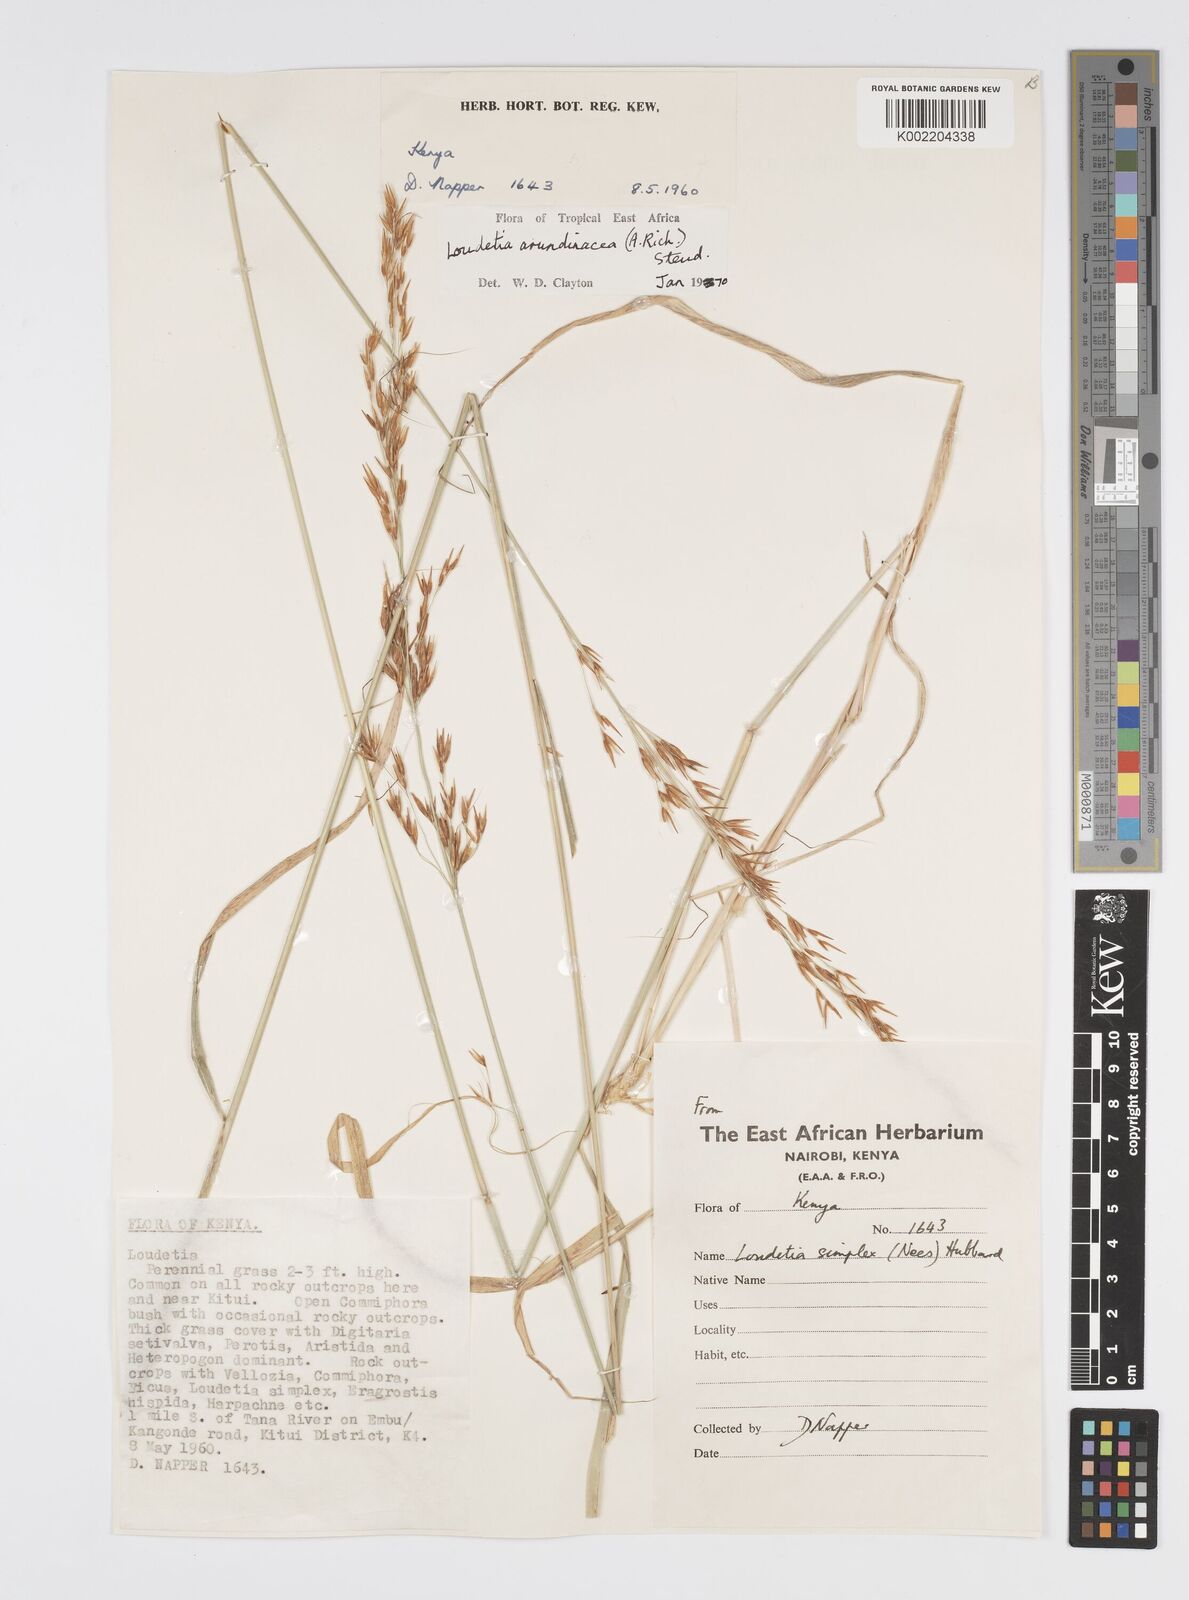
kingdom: Plantae
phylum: Tracheophyta
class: Liliopsida
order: Poales
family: Poaceae
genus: Loudetia
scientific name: Loudetia arundinacea
